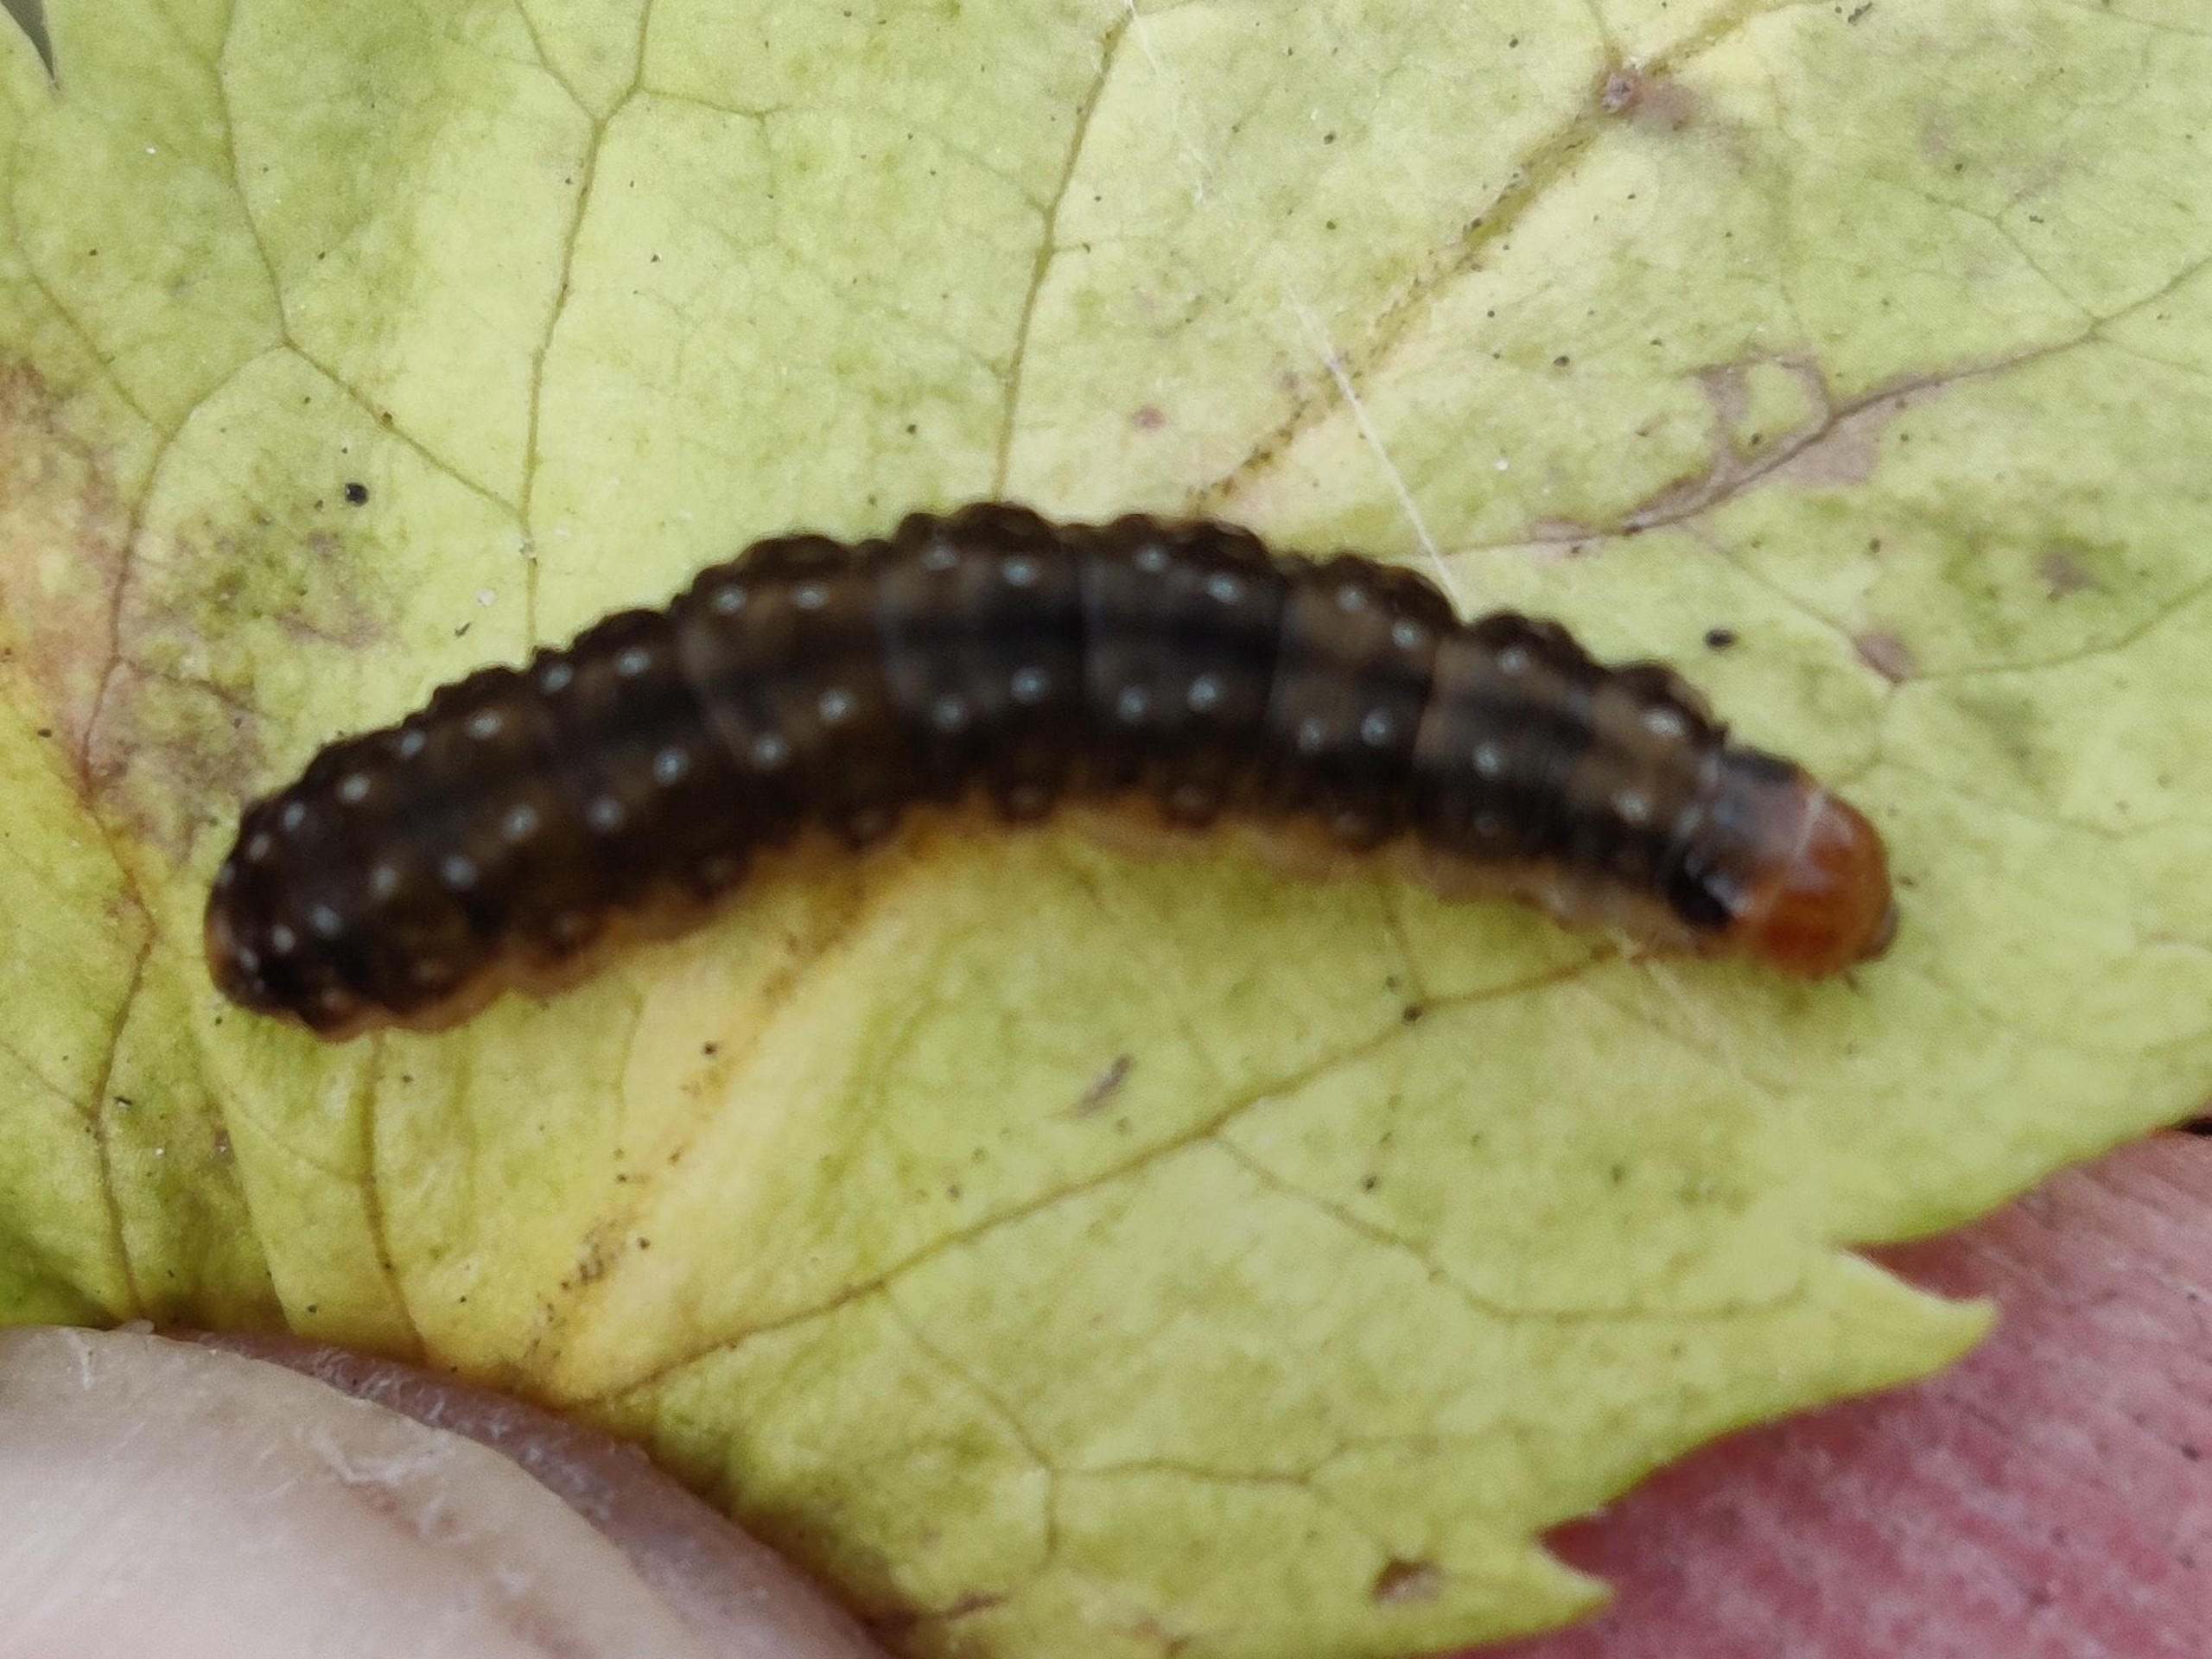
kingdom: Animalia
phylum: Arthropoda
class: Insecta
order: Lepidoptera
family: Tortricidae
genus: Syndemis
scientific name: Syndemis musculana
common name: Høstvikler
